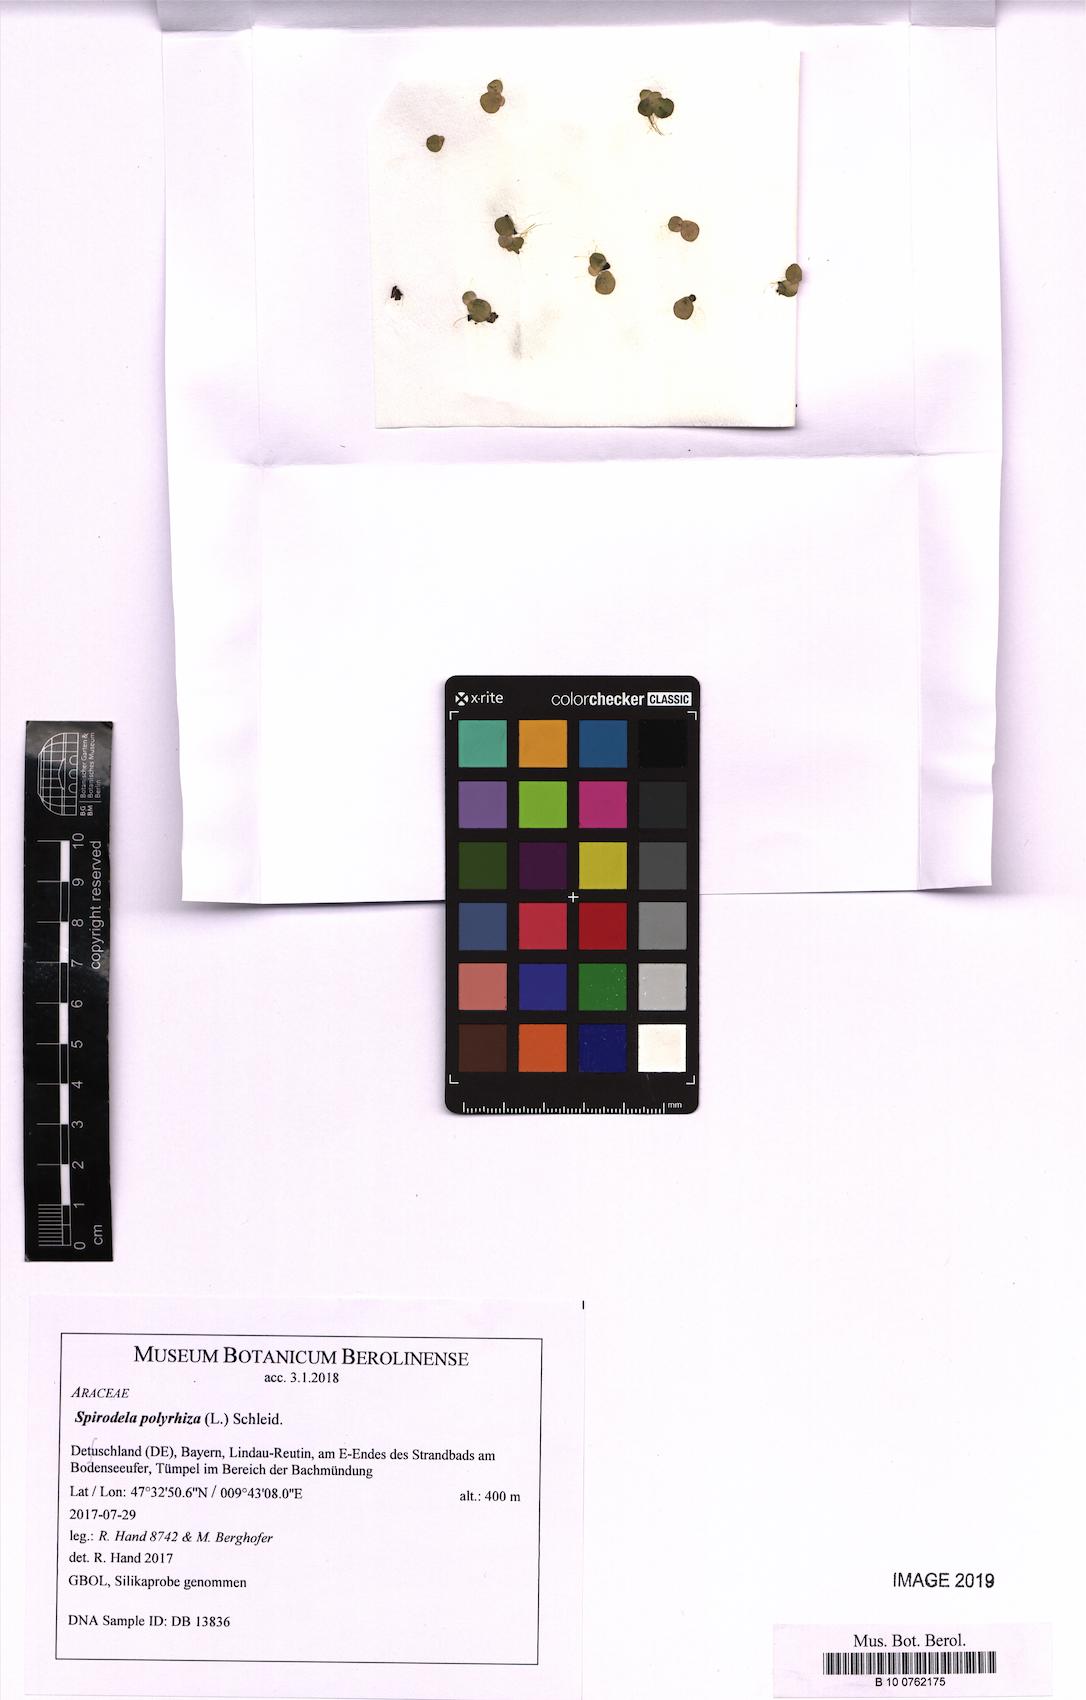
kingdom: Plantae
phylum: Tracheophyta
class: Liliopsida
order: Alismatales
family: Araceae
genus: Spirodela
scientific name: Spirodela polyrhiza
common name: Great duckweed
